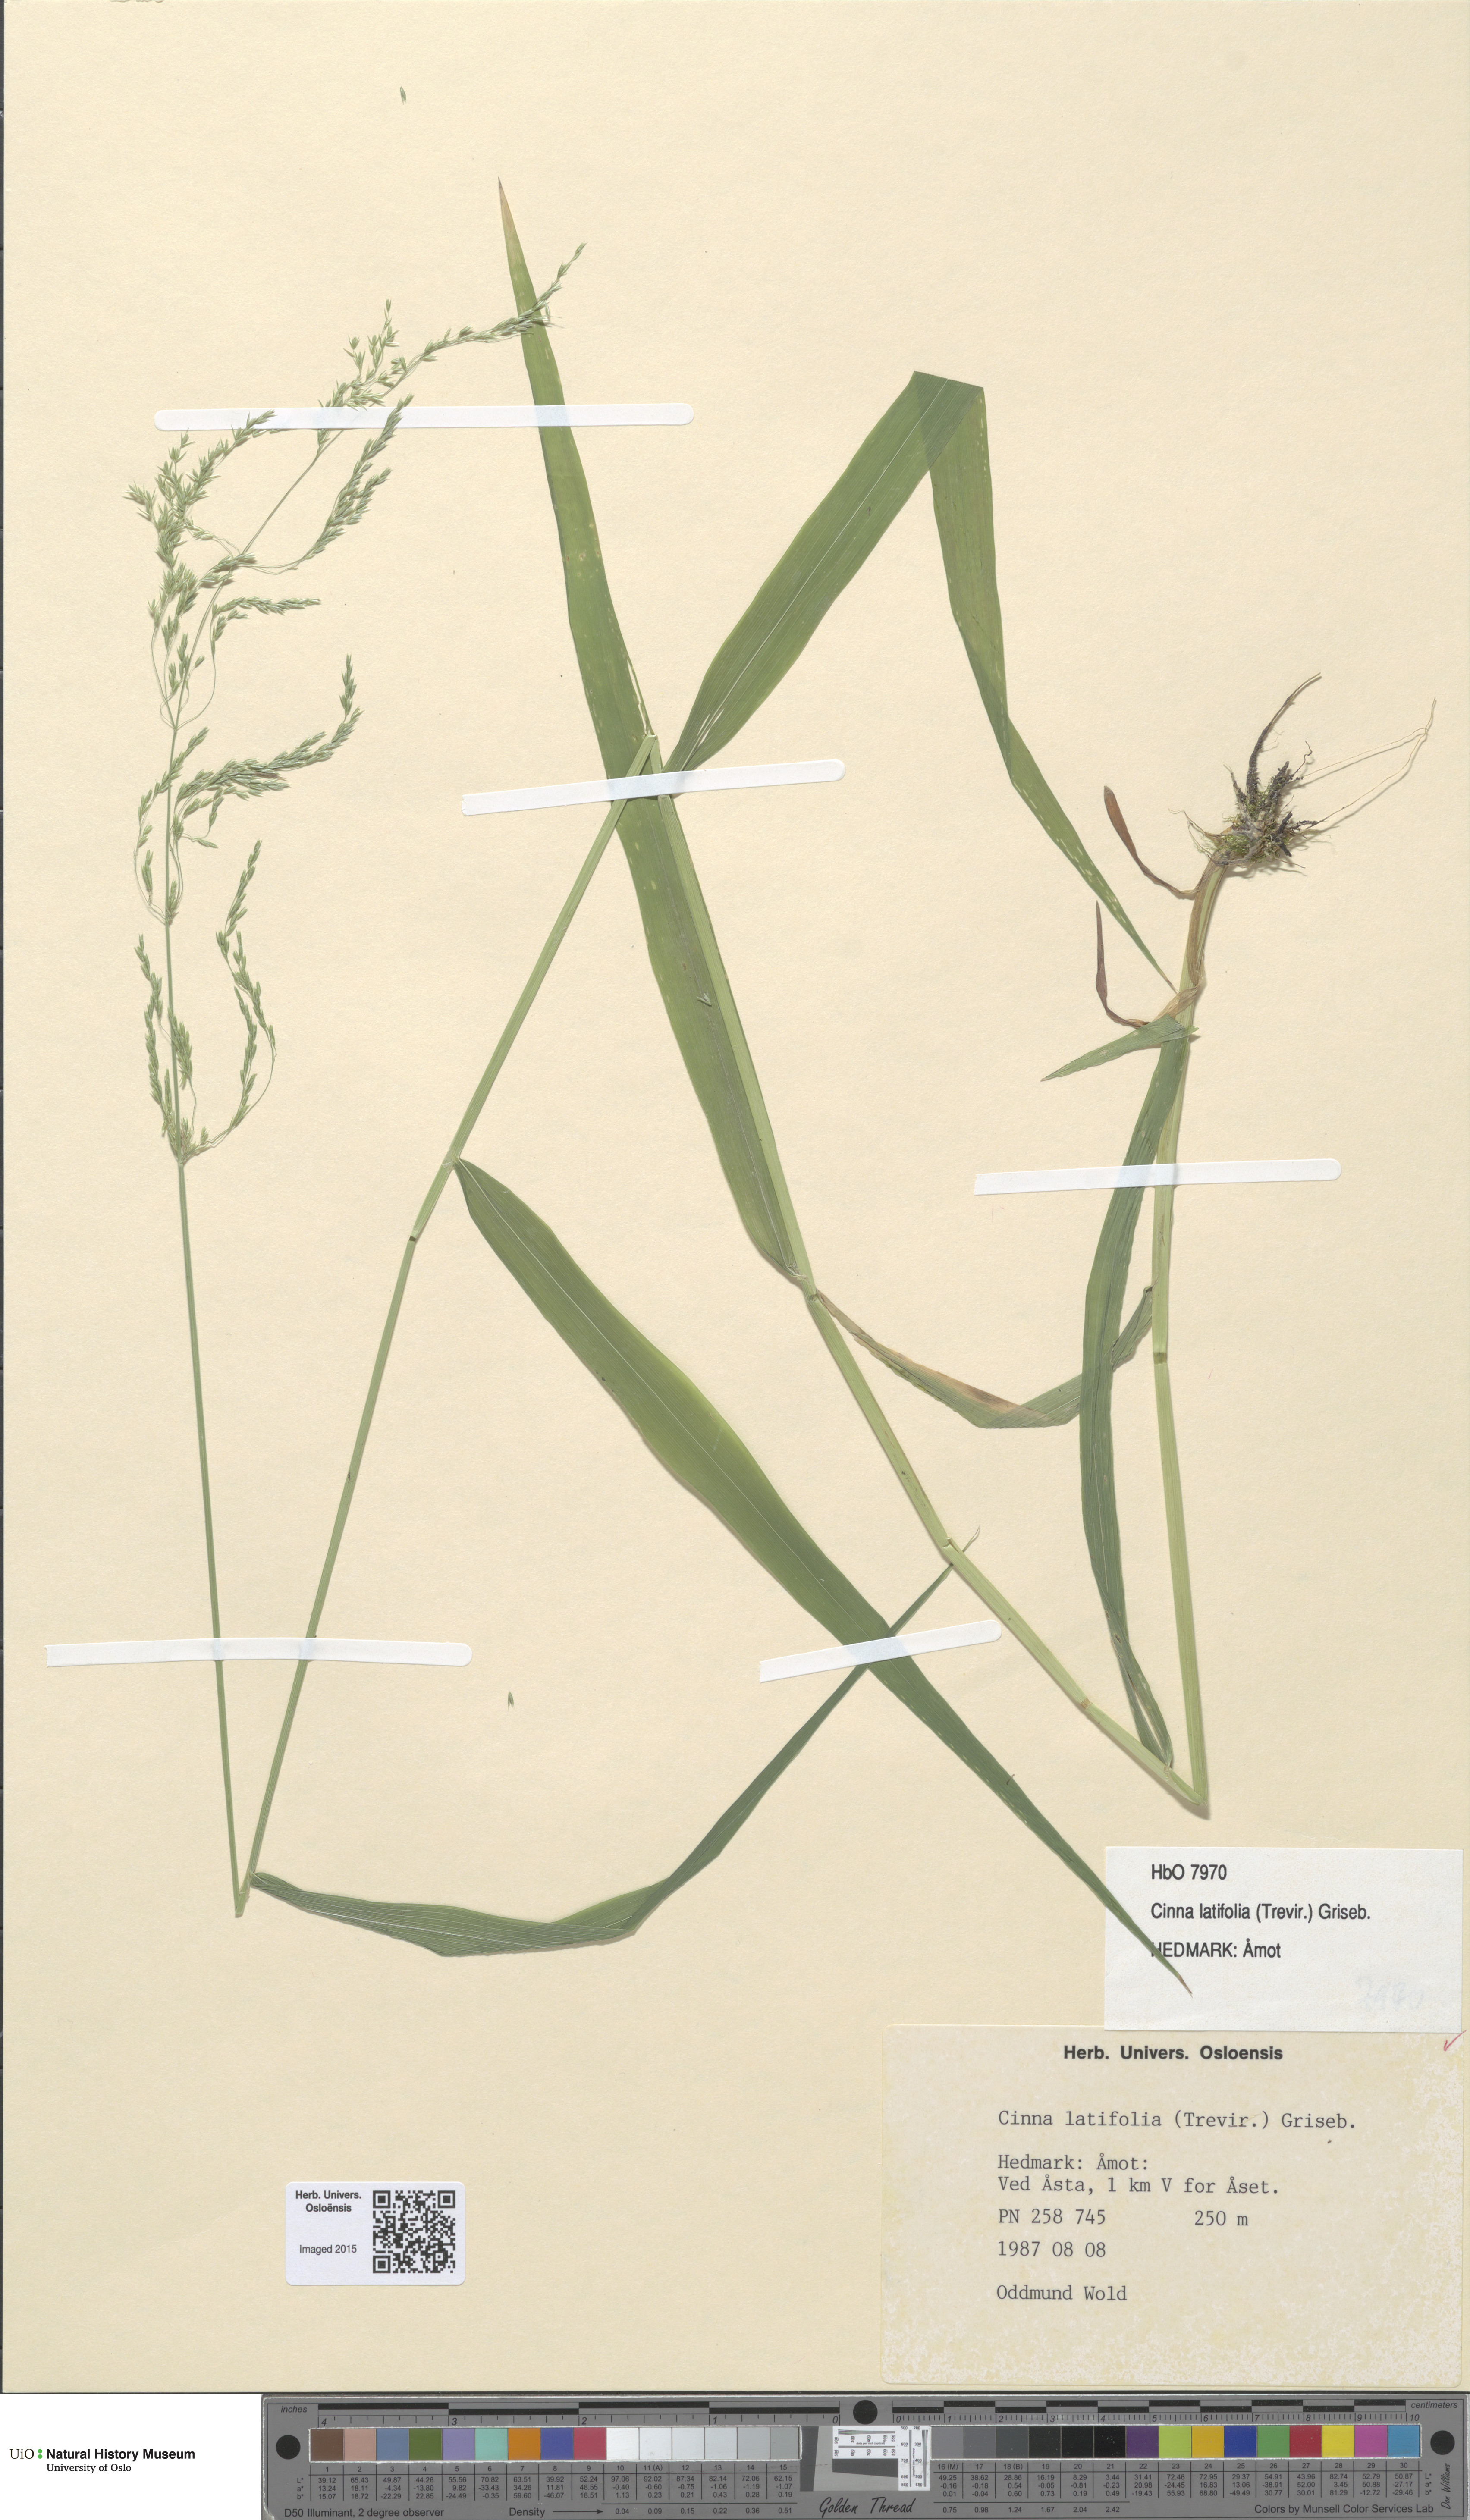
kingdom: Plantae
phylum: Tracheophyta
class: Liliopsida
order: Poales
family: Poaceae
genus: Cinna
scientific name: Cinna latifolia
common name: Drooping woodreed
